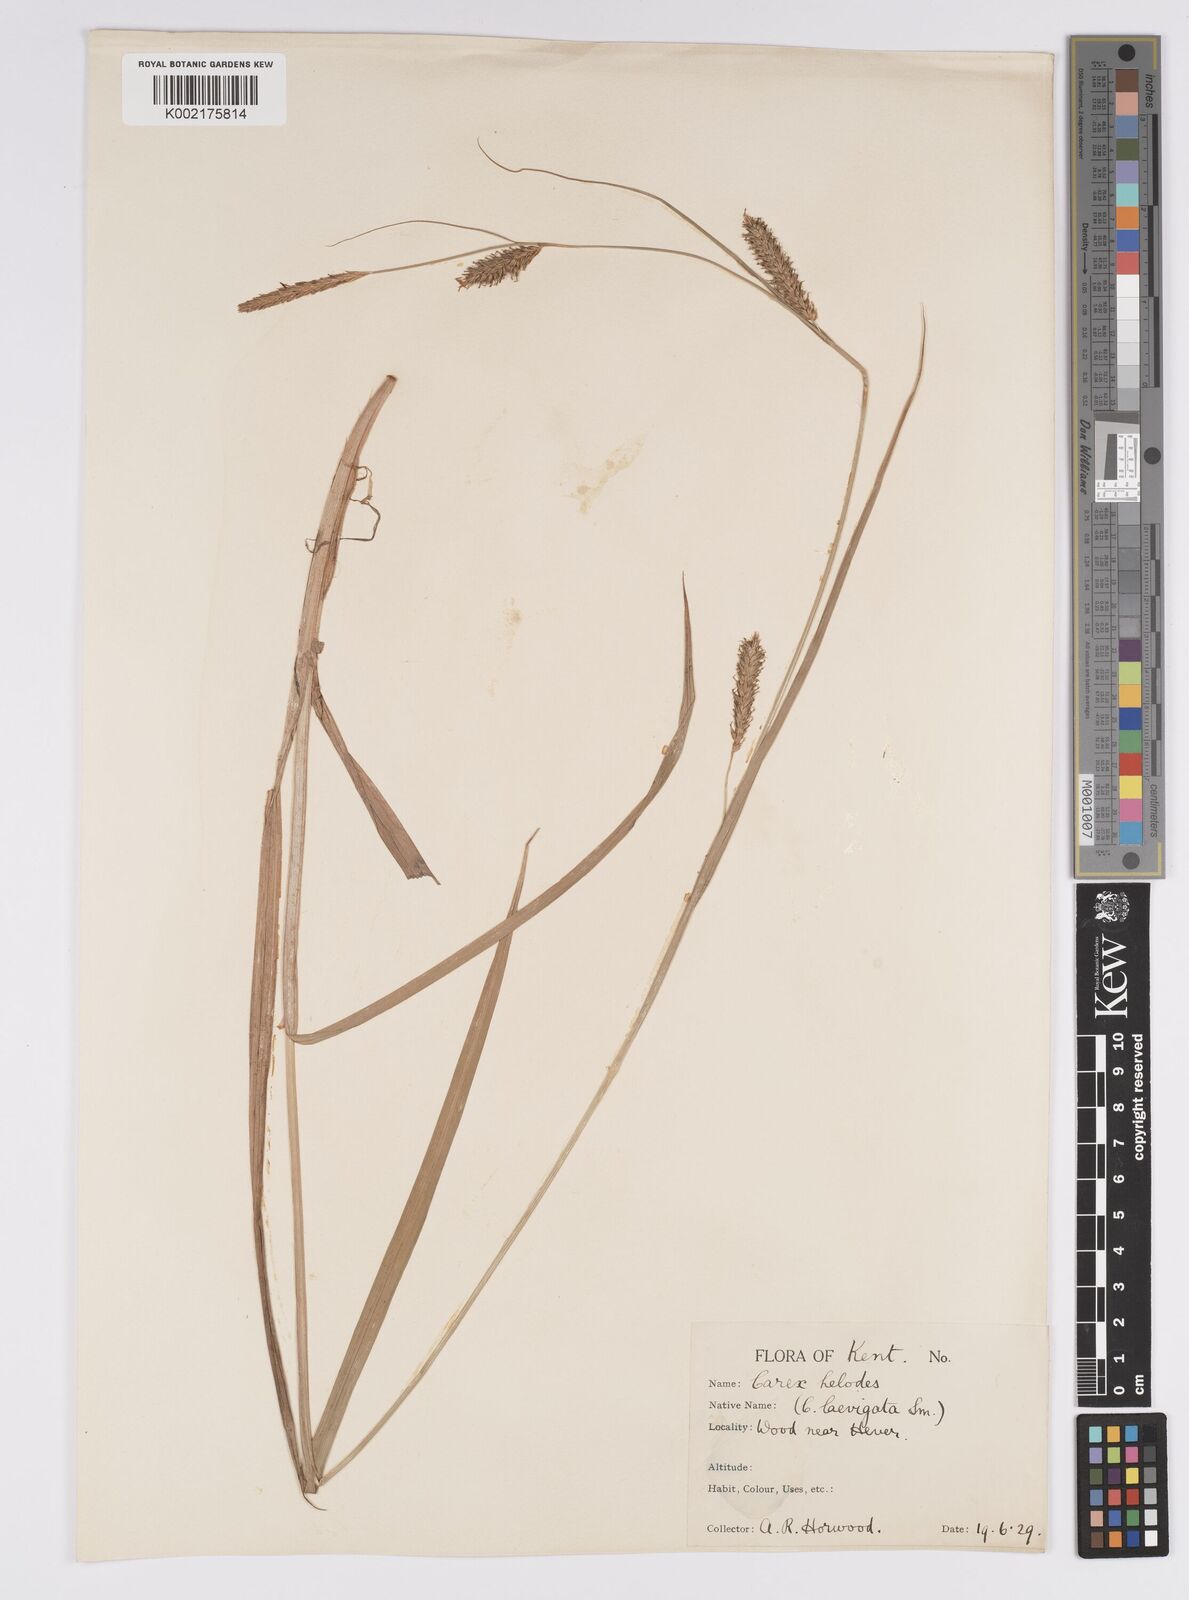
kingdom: Plantae
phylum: Tracheophyta
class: Liliopsida
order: Poales
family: Cyperaceae
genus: Carex
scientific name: Carex laevigata
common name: Smooth-stalked sedge
